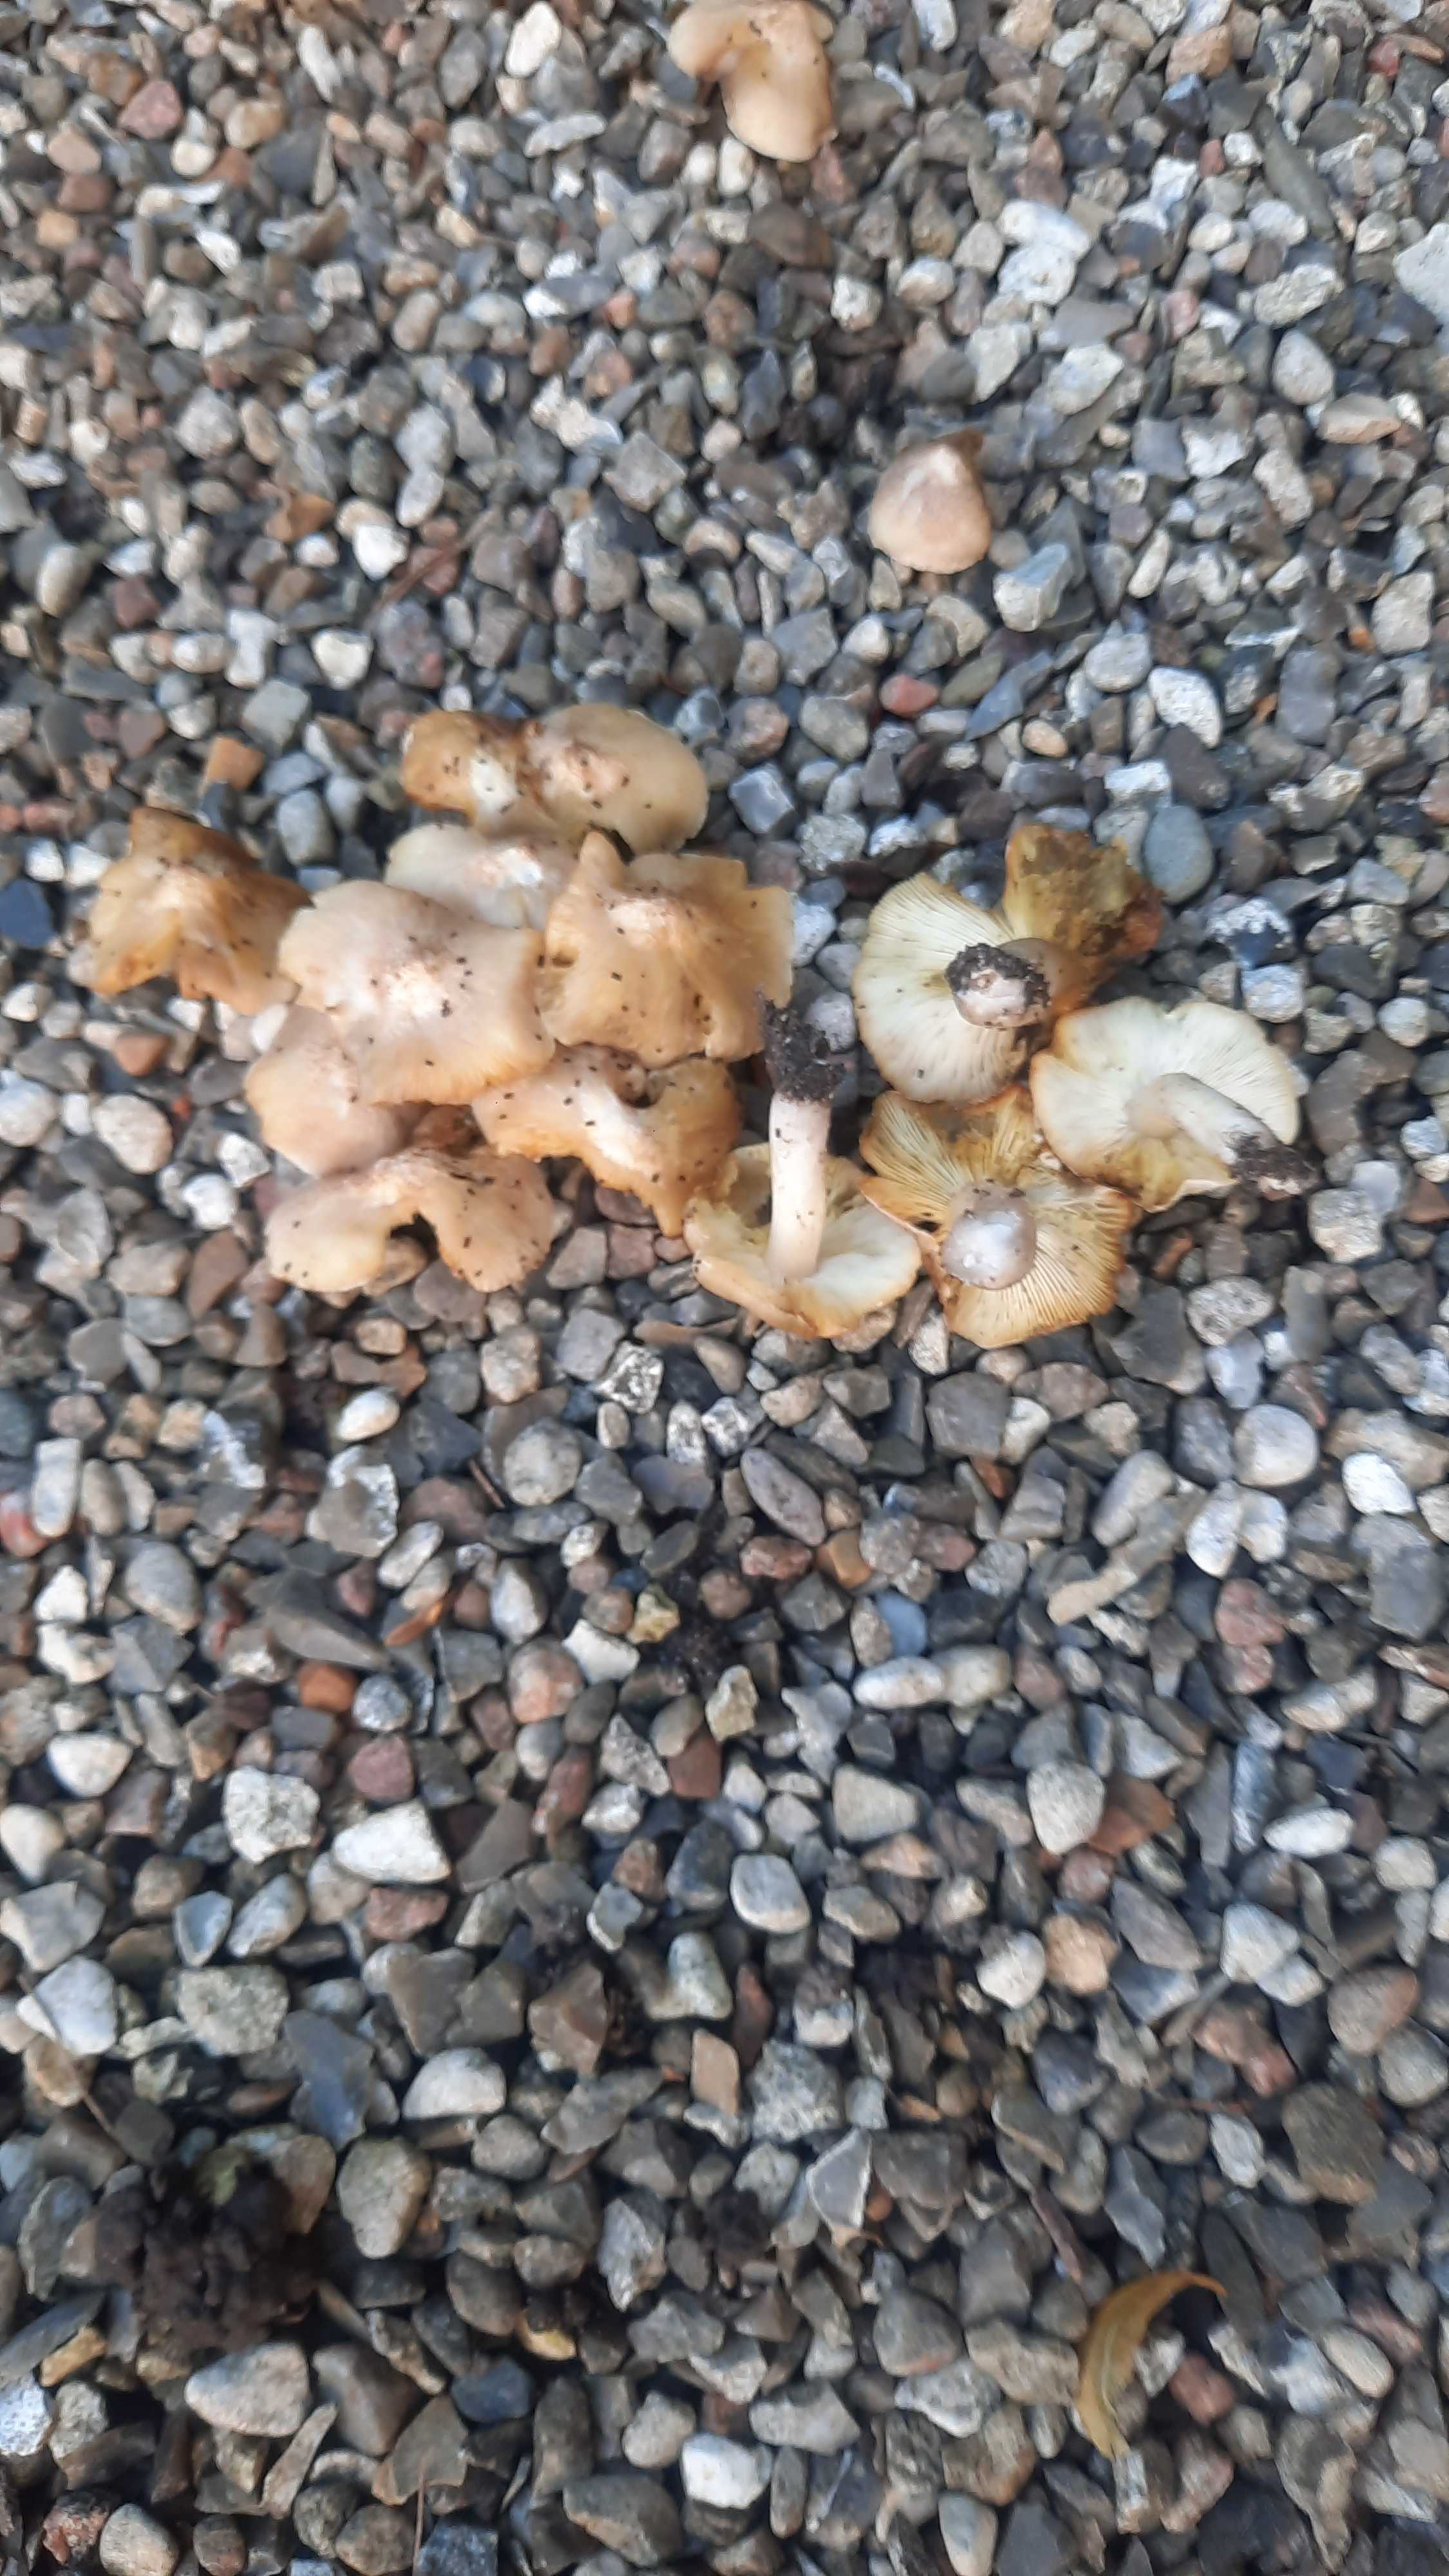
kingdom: Fungi
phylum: Basidiomycota
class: Agaricomycetes
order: Agaricales
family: Tricholomataceae
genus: Tricholoma
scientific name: Tricholoma argyraceum
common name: spids ridderhat
